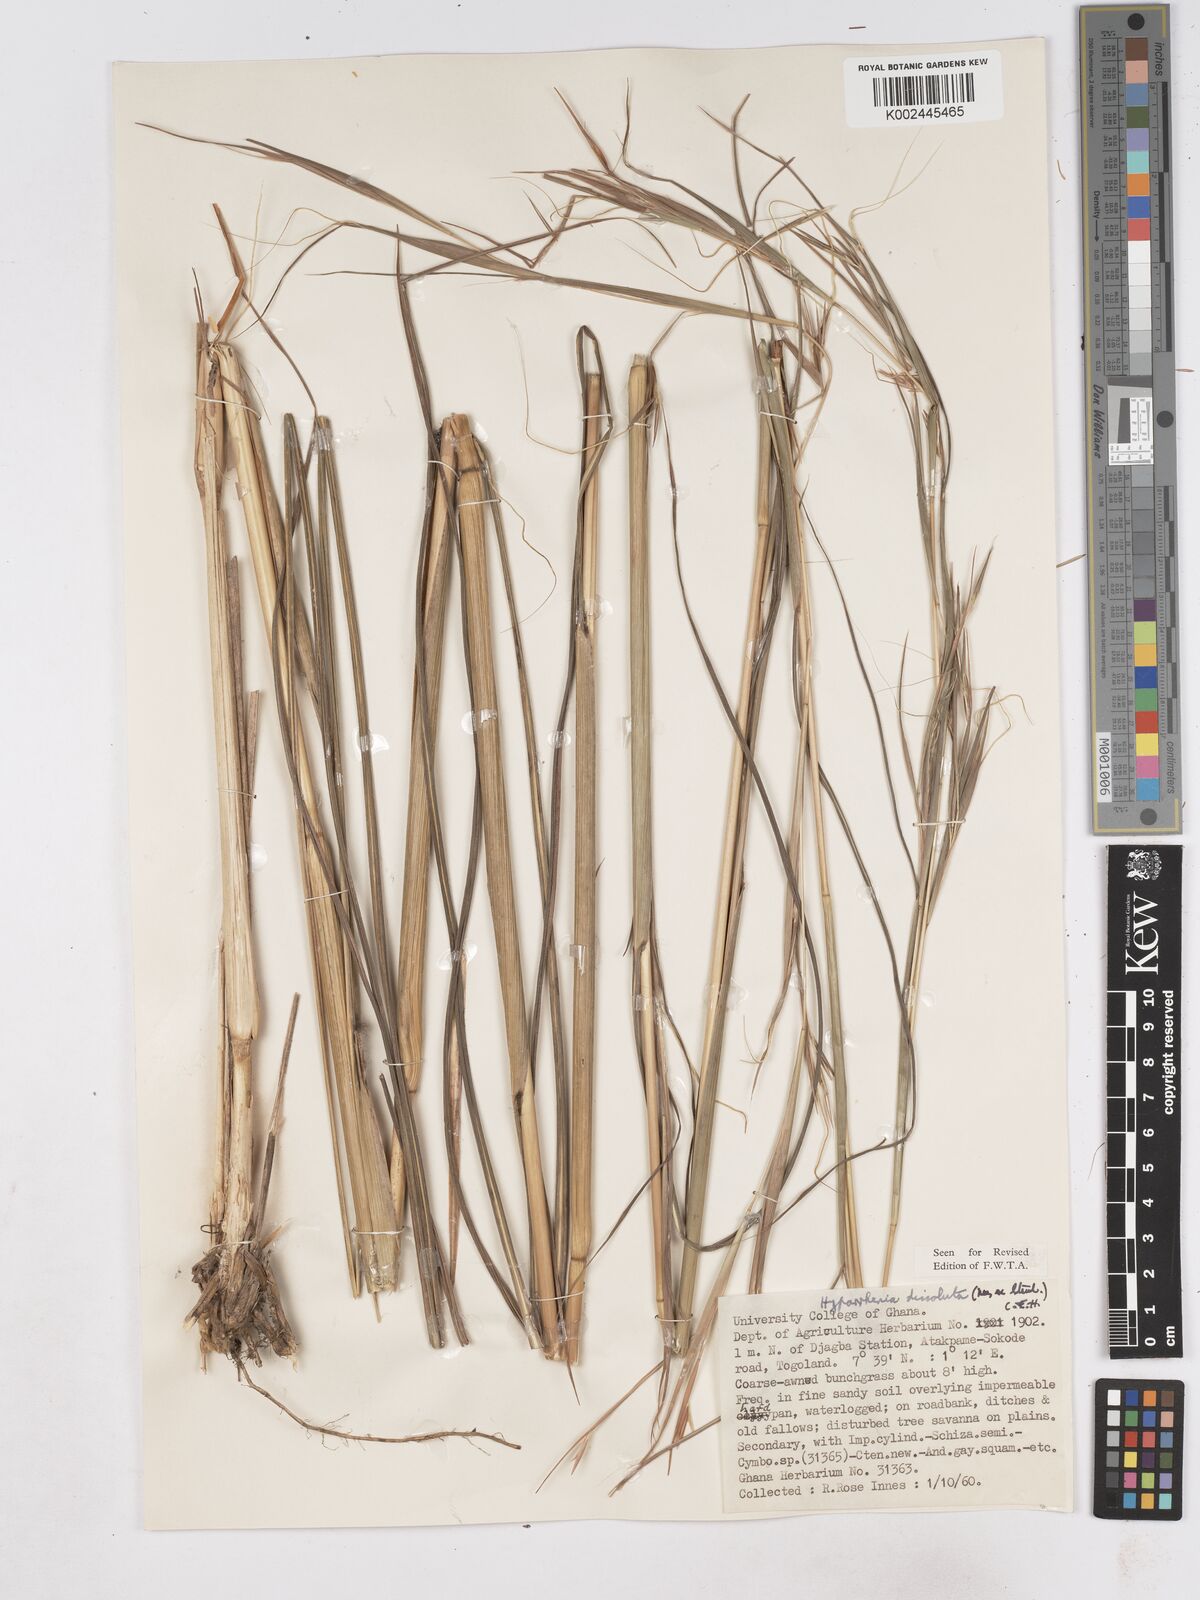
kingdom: Plantae
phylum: Tracheophyta
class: Liliopsida
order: Poales
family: Poaceae
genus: Hyperthelia
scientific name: Hyperthelia dissoluta
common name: Yellow thatching grass
